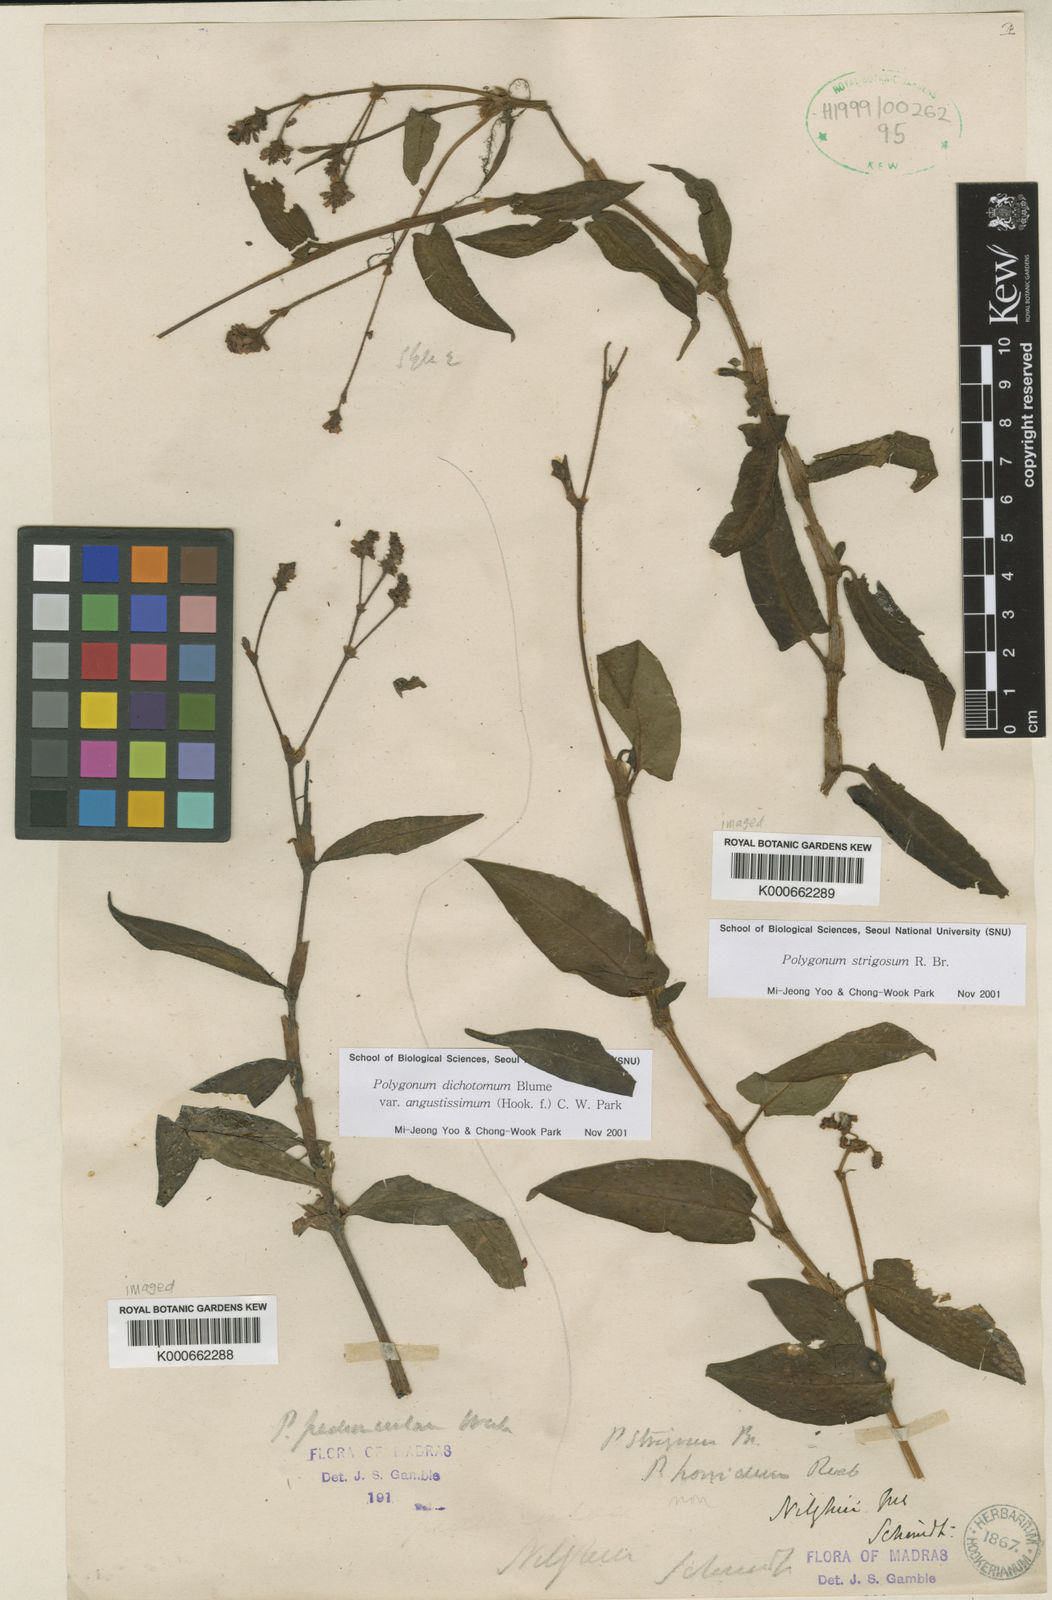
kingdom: Plantae
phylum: Tracheophyta
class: Magnoliopsida
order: Caryophyllales
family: Polygonaceae
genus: Persicaria
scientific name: Persicaria strigosa
